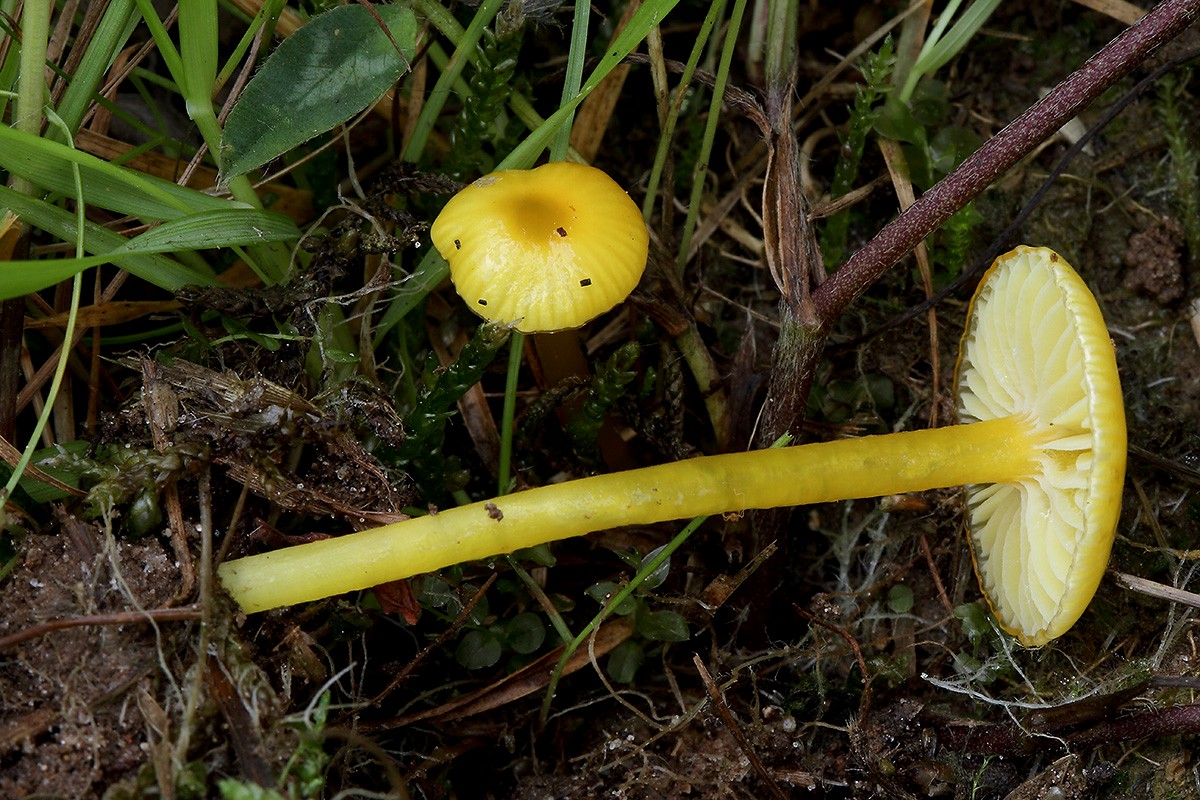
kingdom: Fungi
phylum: Basidiomycota
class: Agaricomycetes
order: Agaricales
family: Hygrophoraceae
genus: Hygrocybe
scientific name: Hygrocybe glutinipes
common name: slimstokket vokshat
